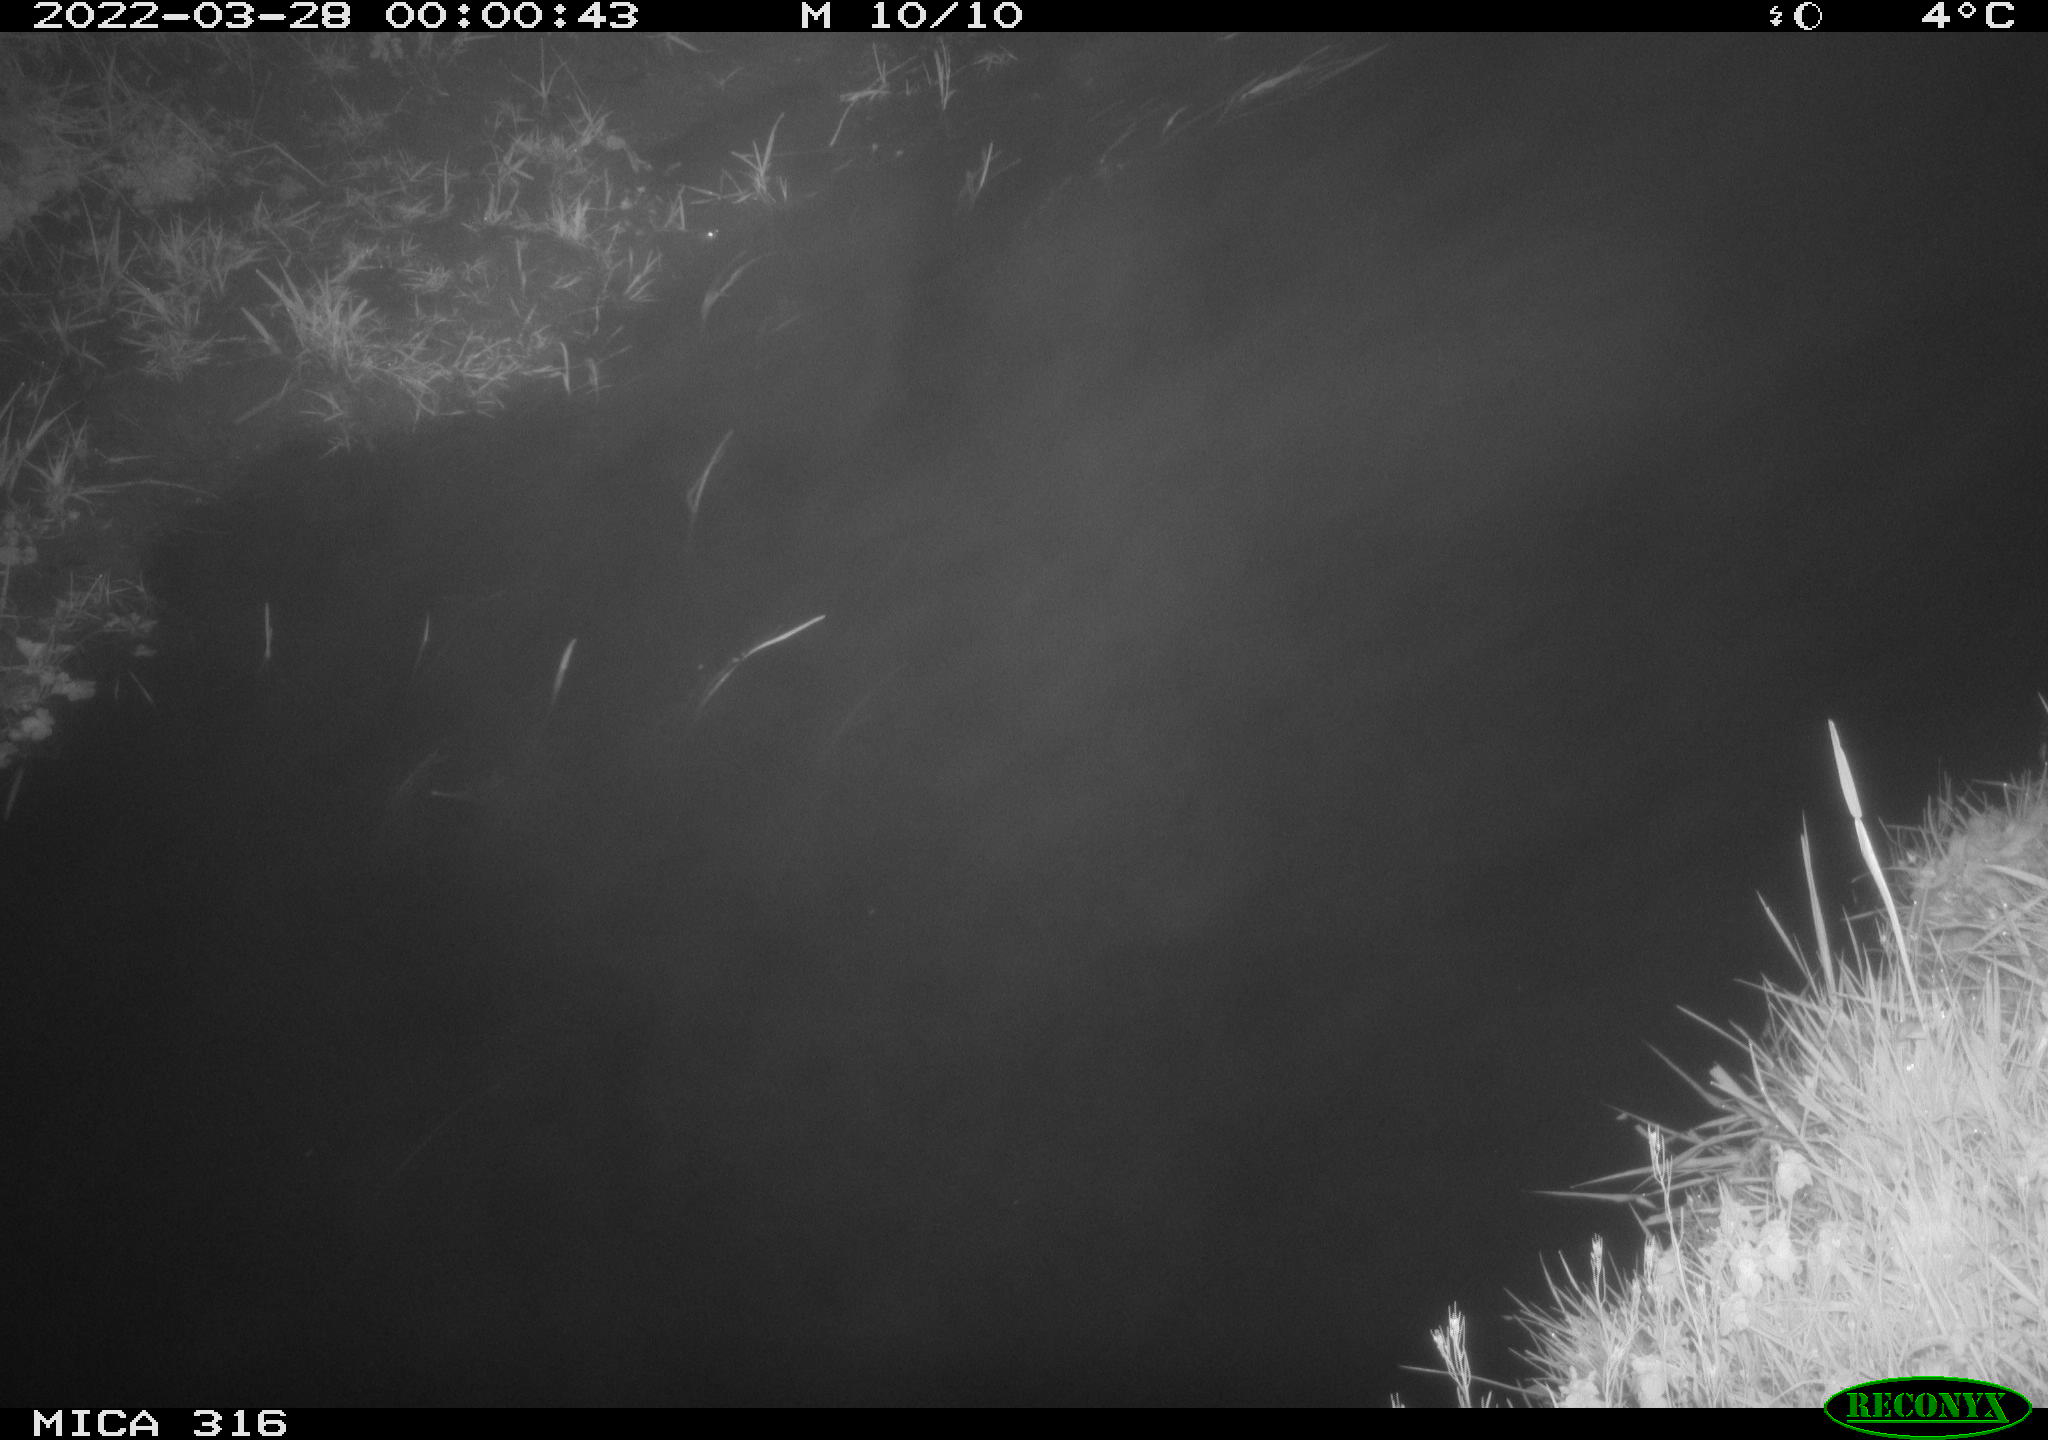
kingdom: Animalia
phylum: Chordata
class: Aves
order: Anseriformes
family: Anatidae
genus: Anas
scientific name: Anas platyrhynchos
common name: Mallard
